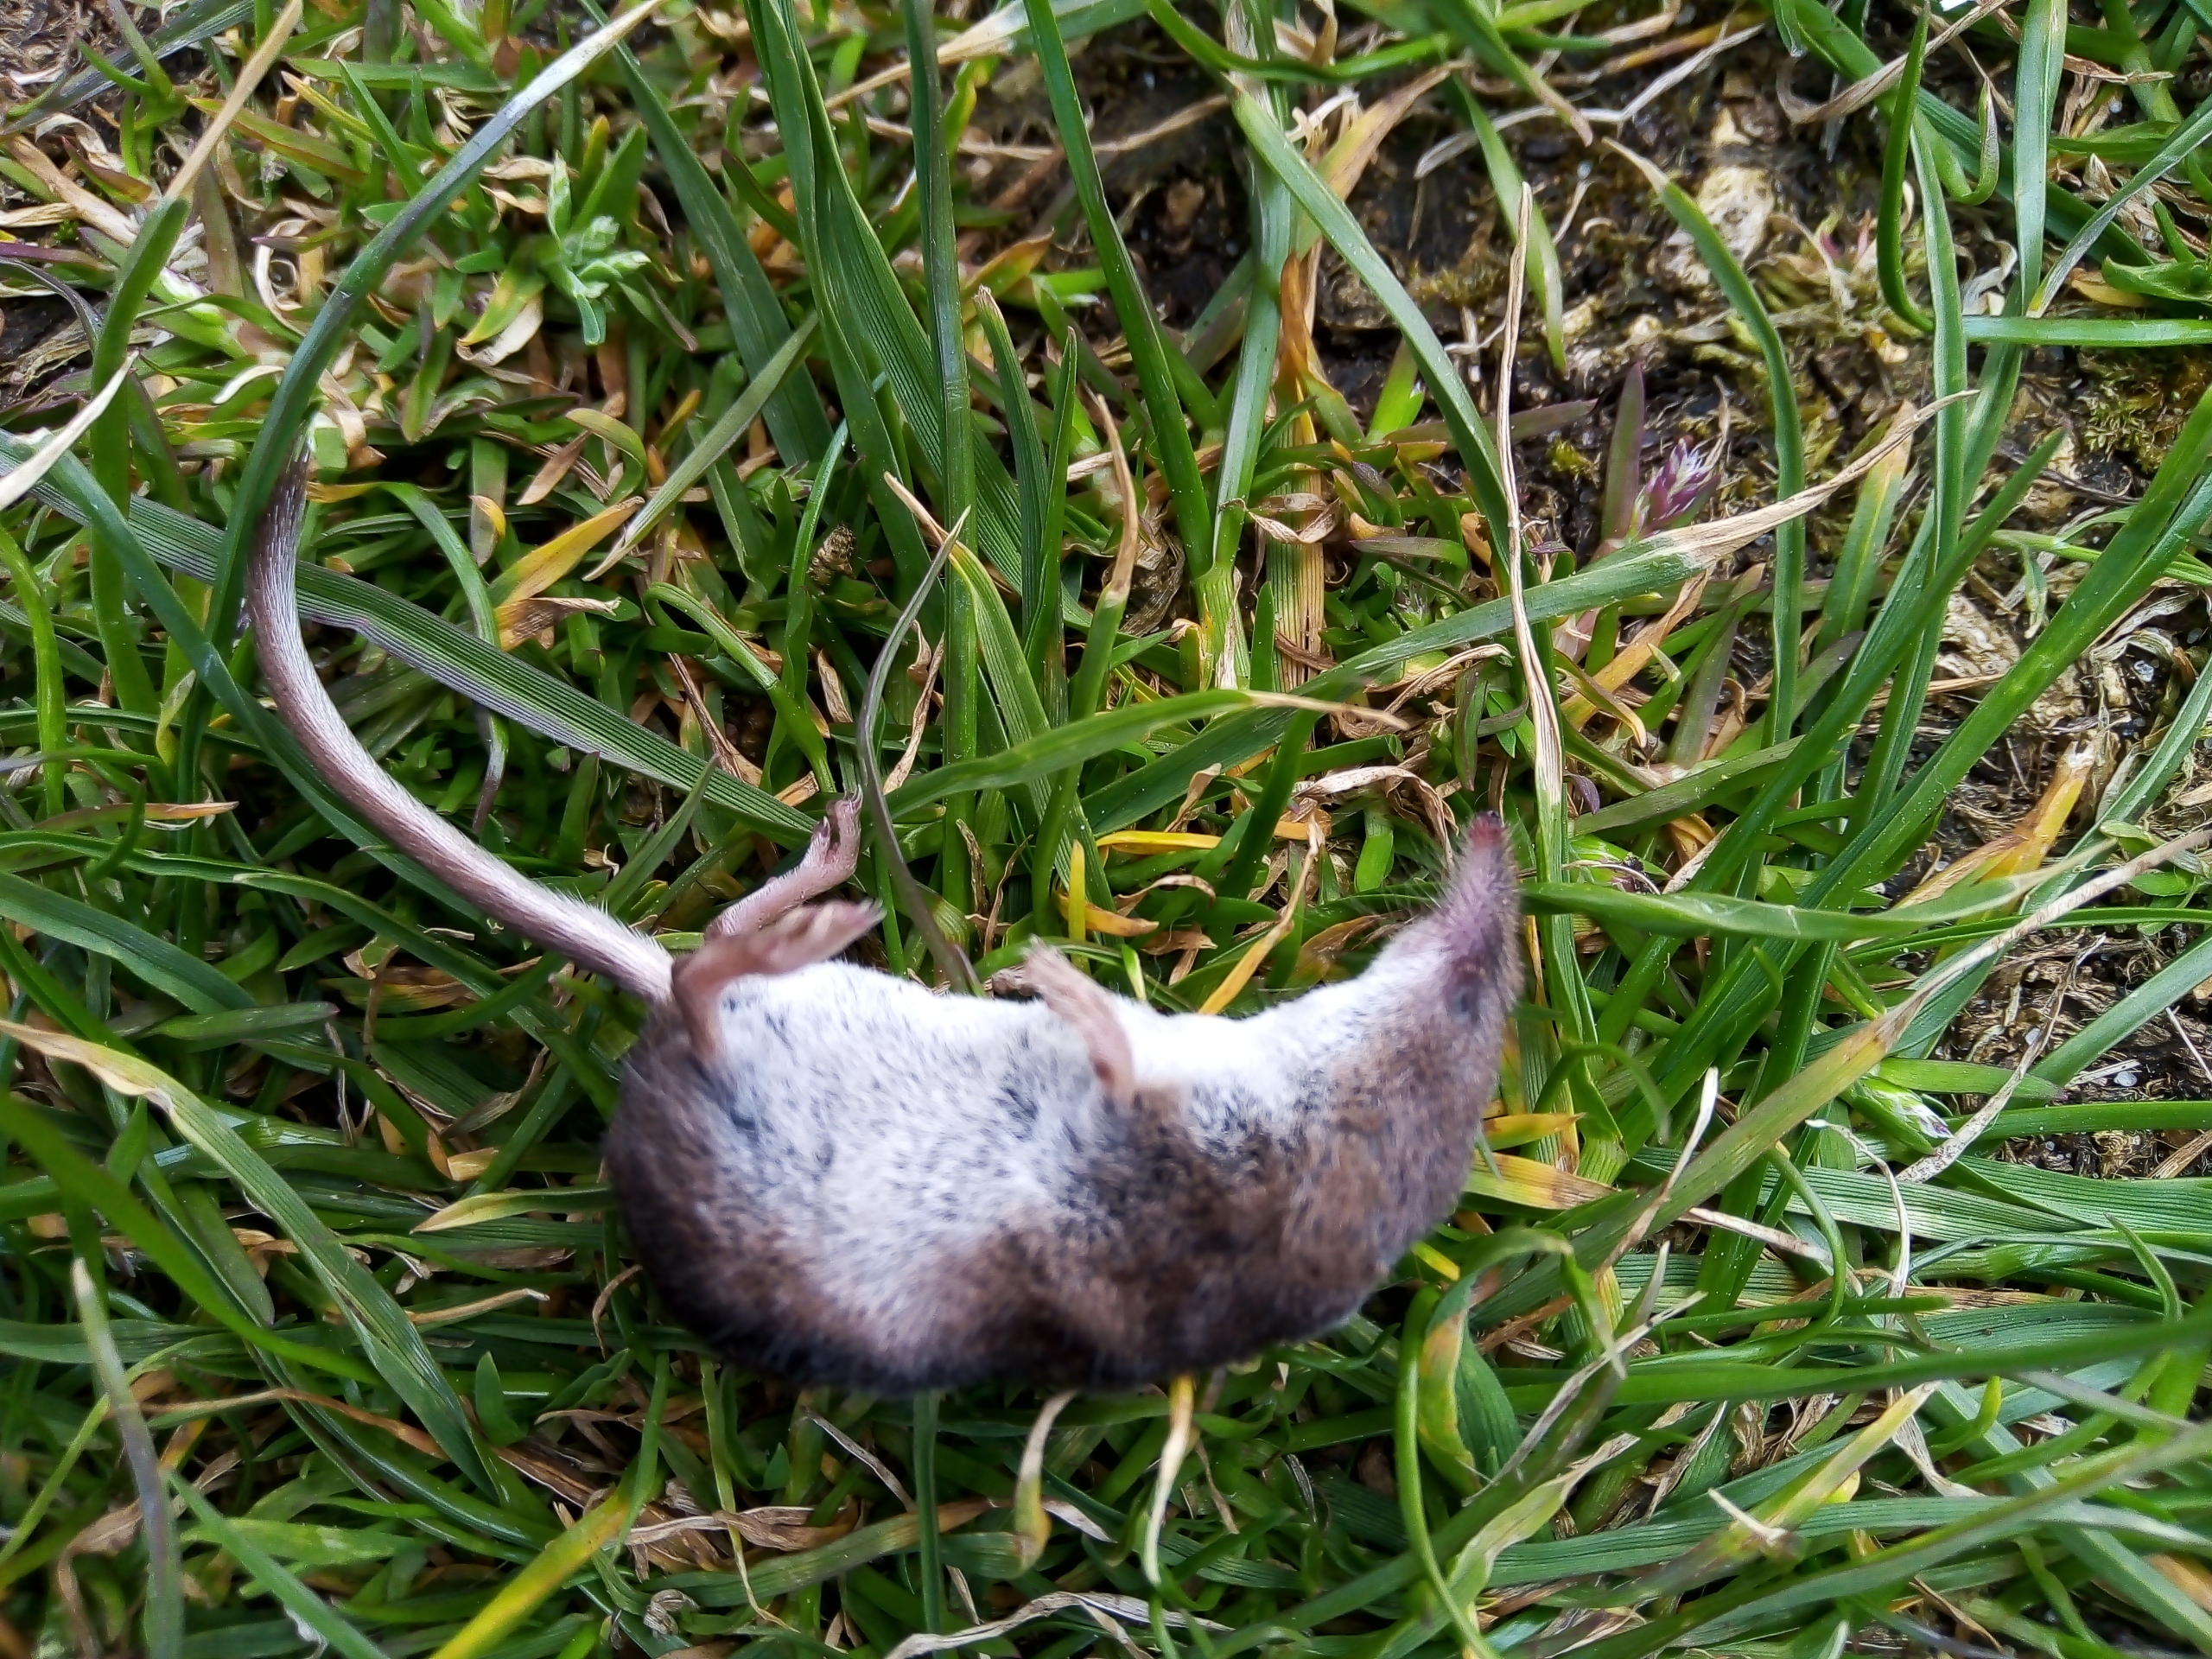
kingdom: Animalia
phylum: Chordata
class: Mammalia
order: Soricomorpha
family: Soricidae
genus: Sorex
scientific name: Sorex araneus
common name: Almindelig spidsmus
